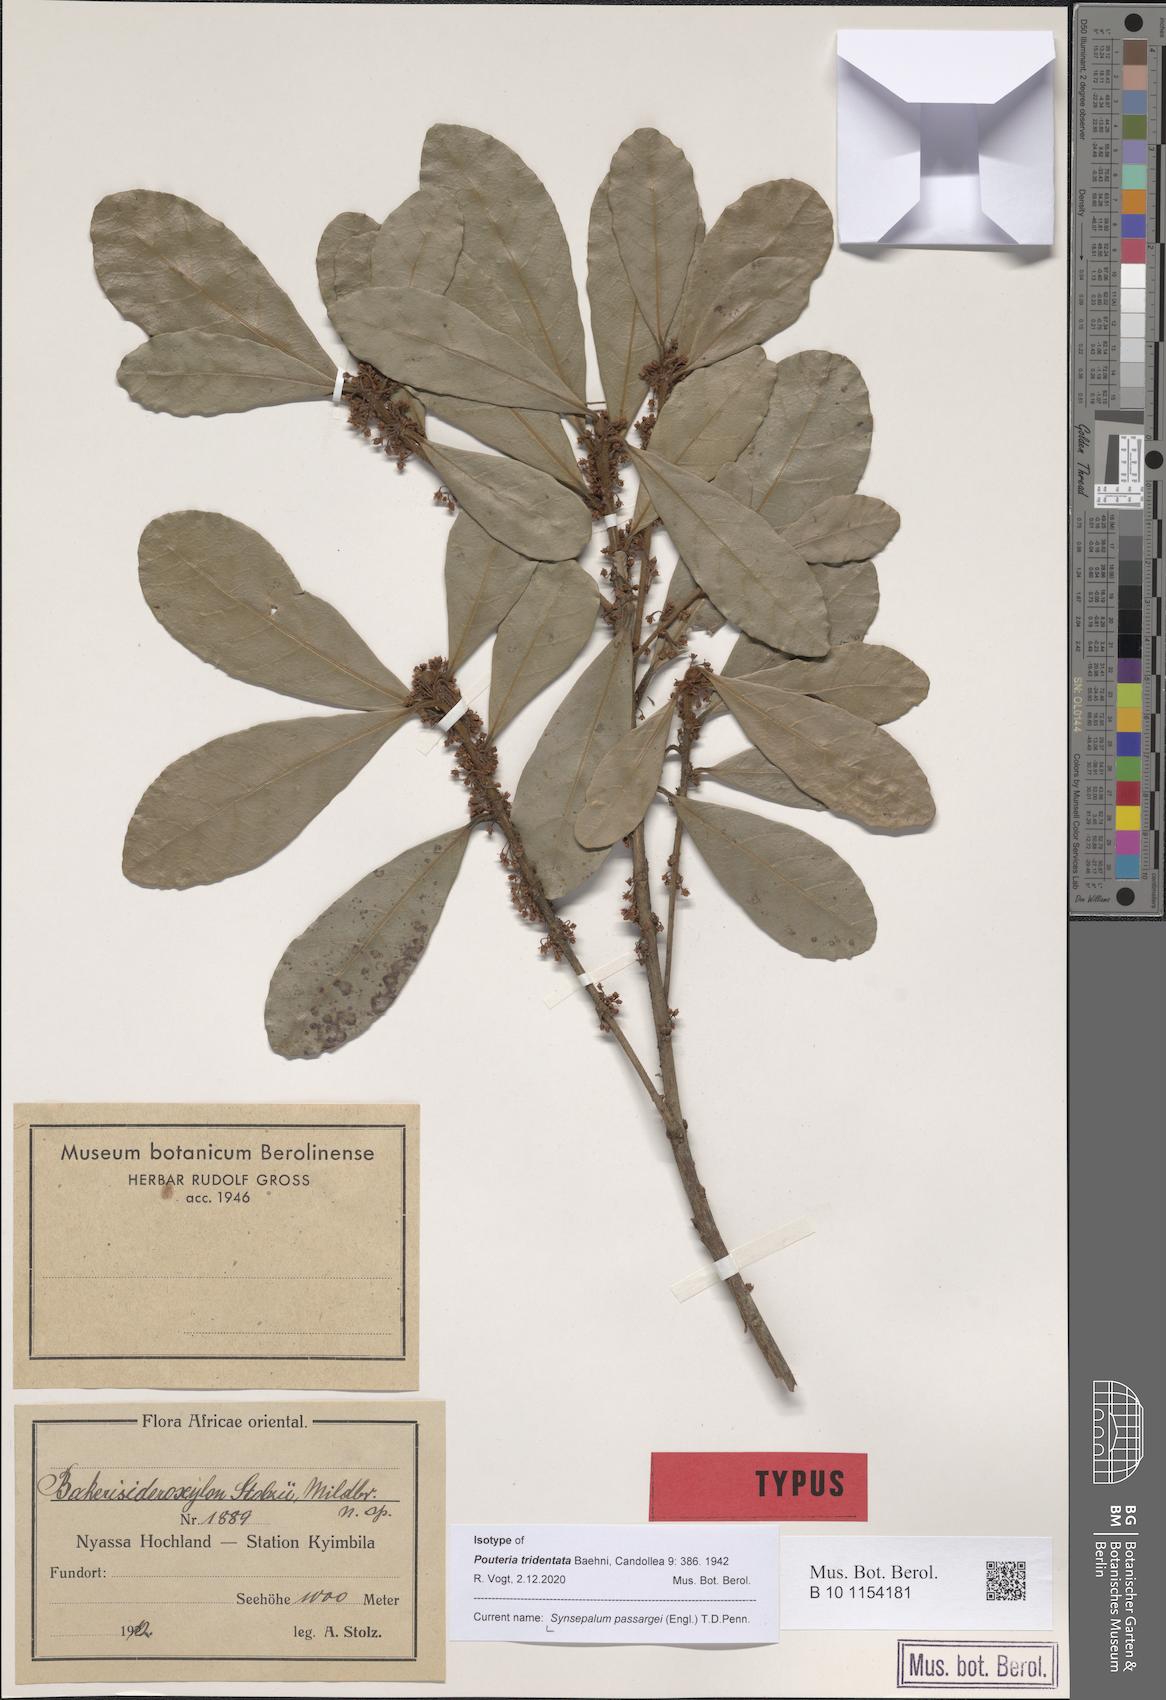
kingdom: Plantae
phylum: Tracheophyta
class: Magnoliopsida
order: Ericales
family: Sapotaceae
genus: Synsepalum
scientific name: Synsepalum passargei
